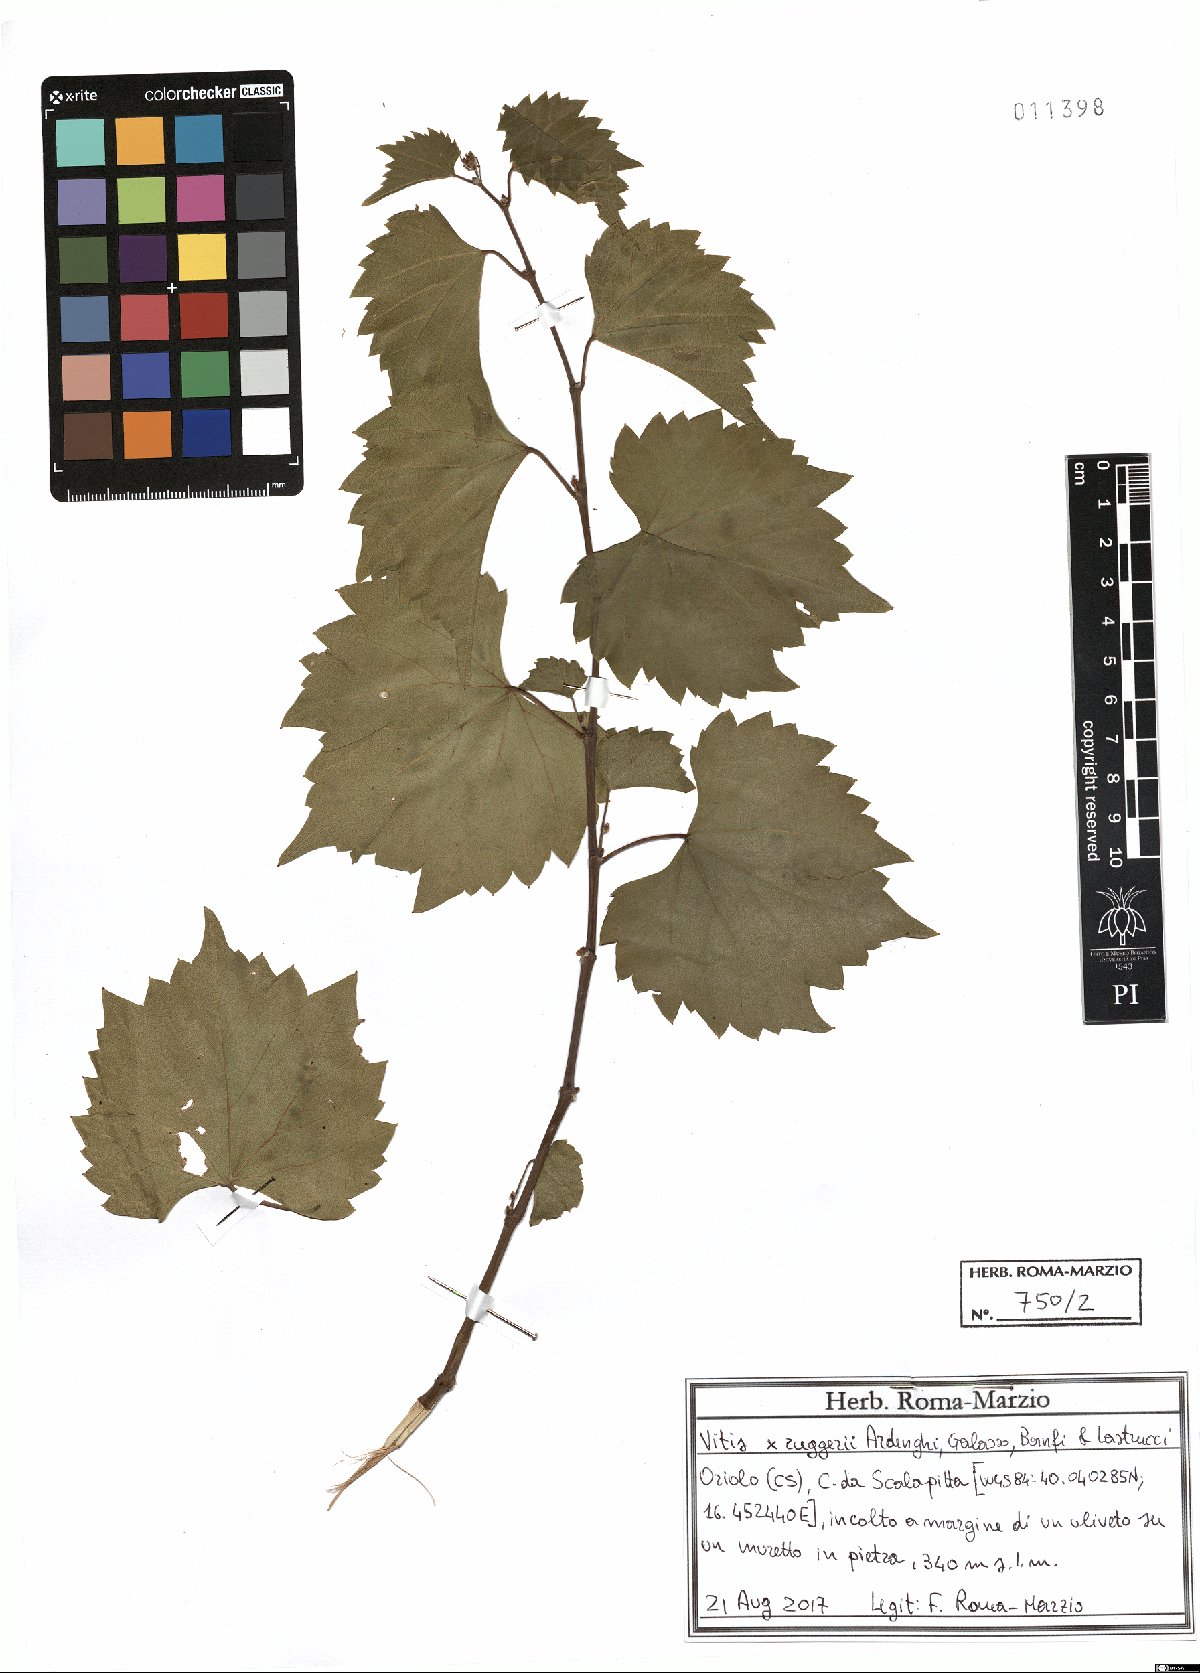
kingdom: Plantae
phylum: Tracheophyta
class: Magnoliopsida
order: Vitales
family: Vitaceae
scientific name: Vitaceae
